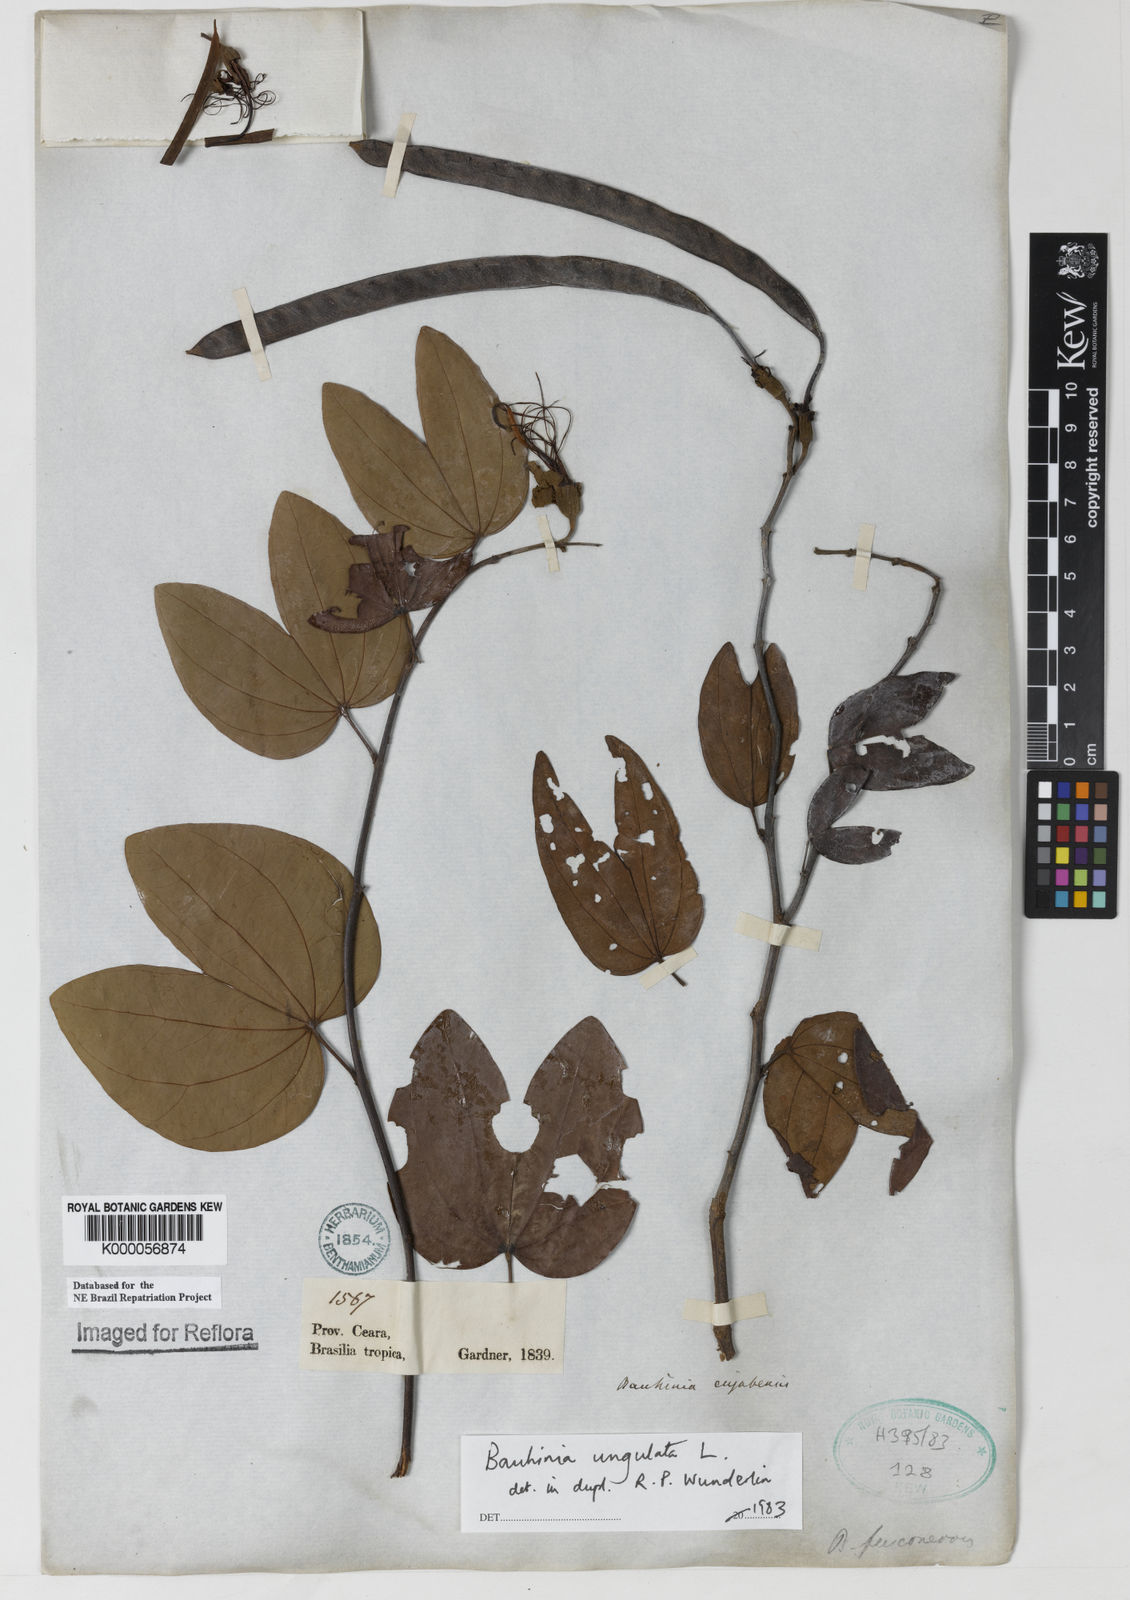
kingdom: Plantae
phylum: Tracheophyta
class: Magnoliopsida
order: Fabales
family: Fabaceae
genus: Bauhinia
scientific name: Bauhinia ungulata
